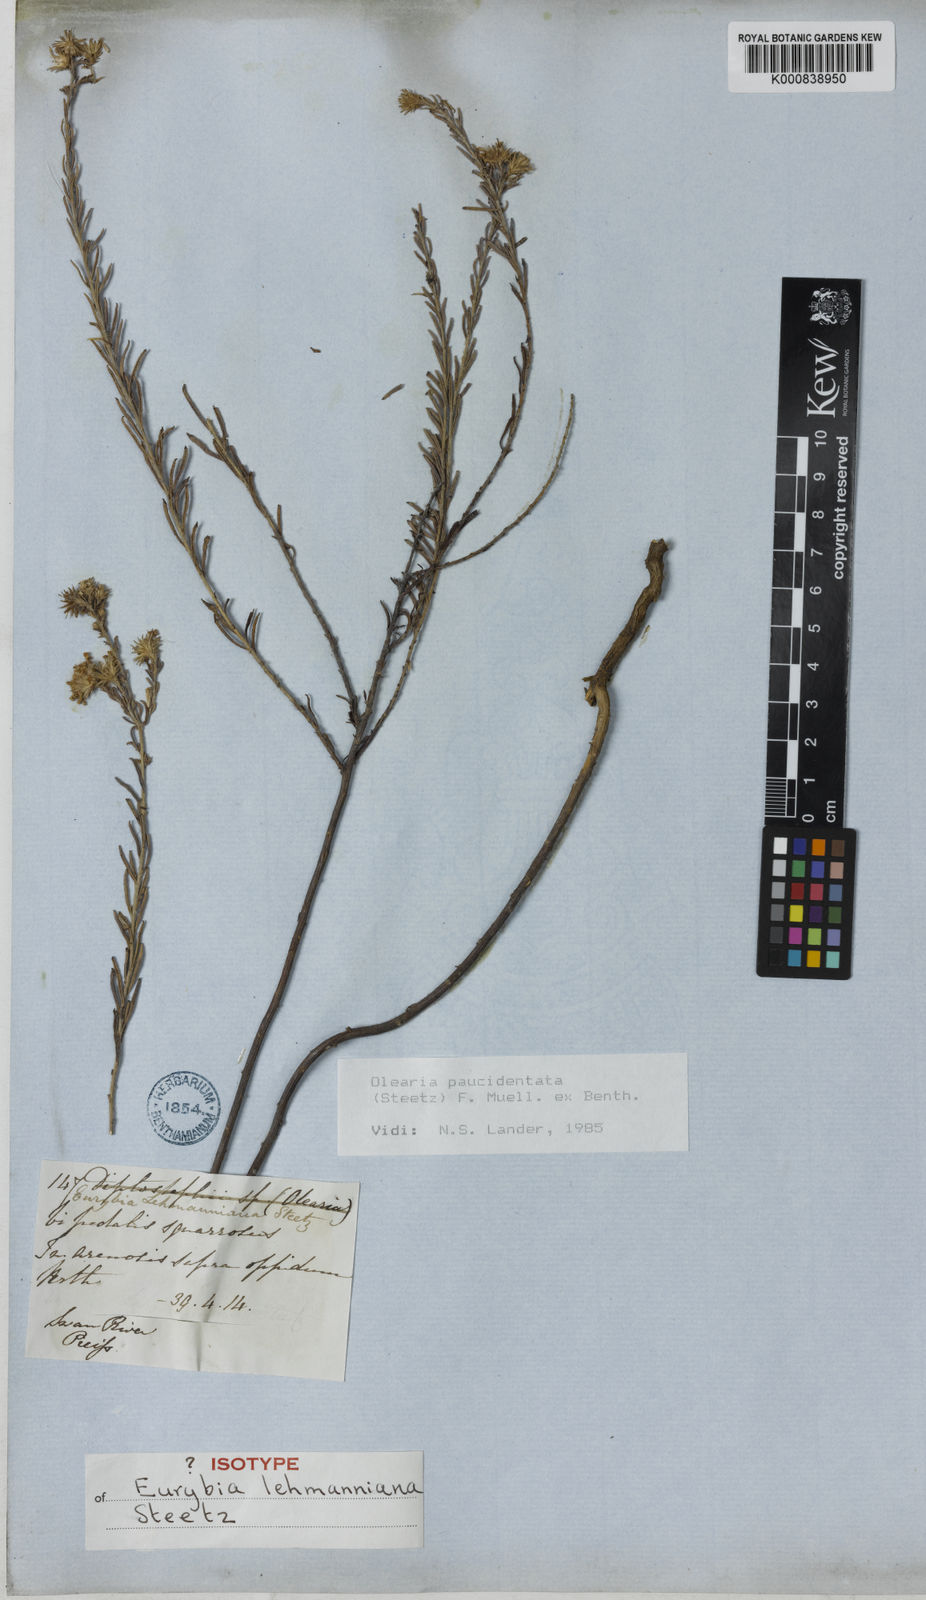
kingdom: Plantae
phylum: Tracheophyta
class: Magnoliopsida
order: Asterales
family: Asteraceae
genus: Olearia
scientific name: Olearia paucidentata
